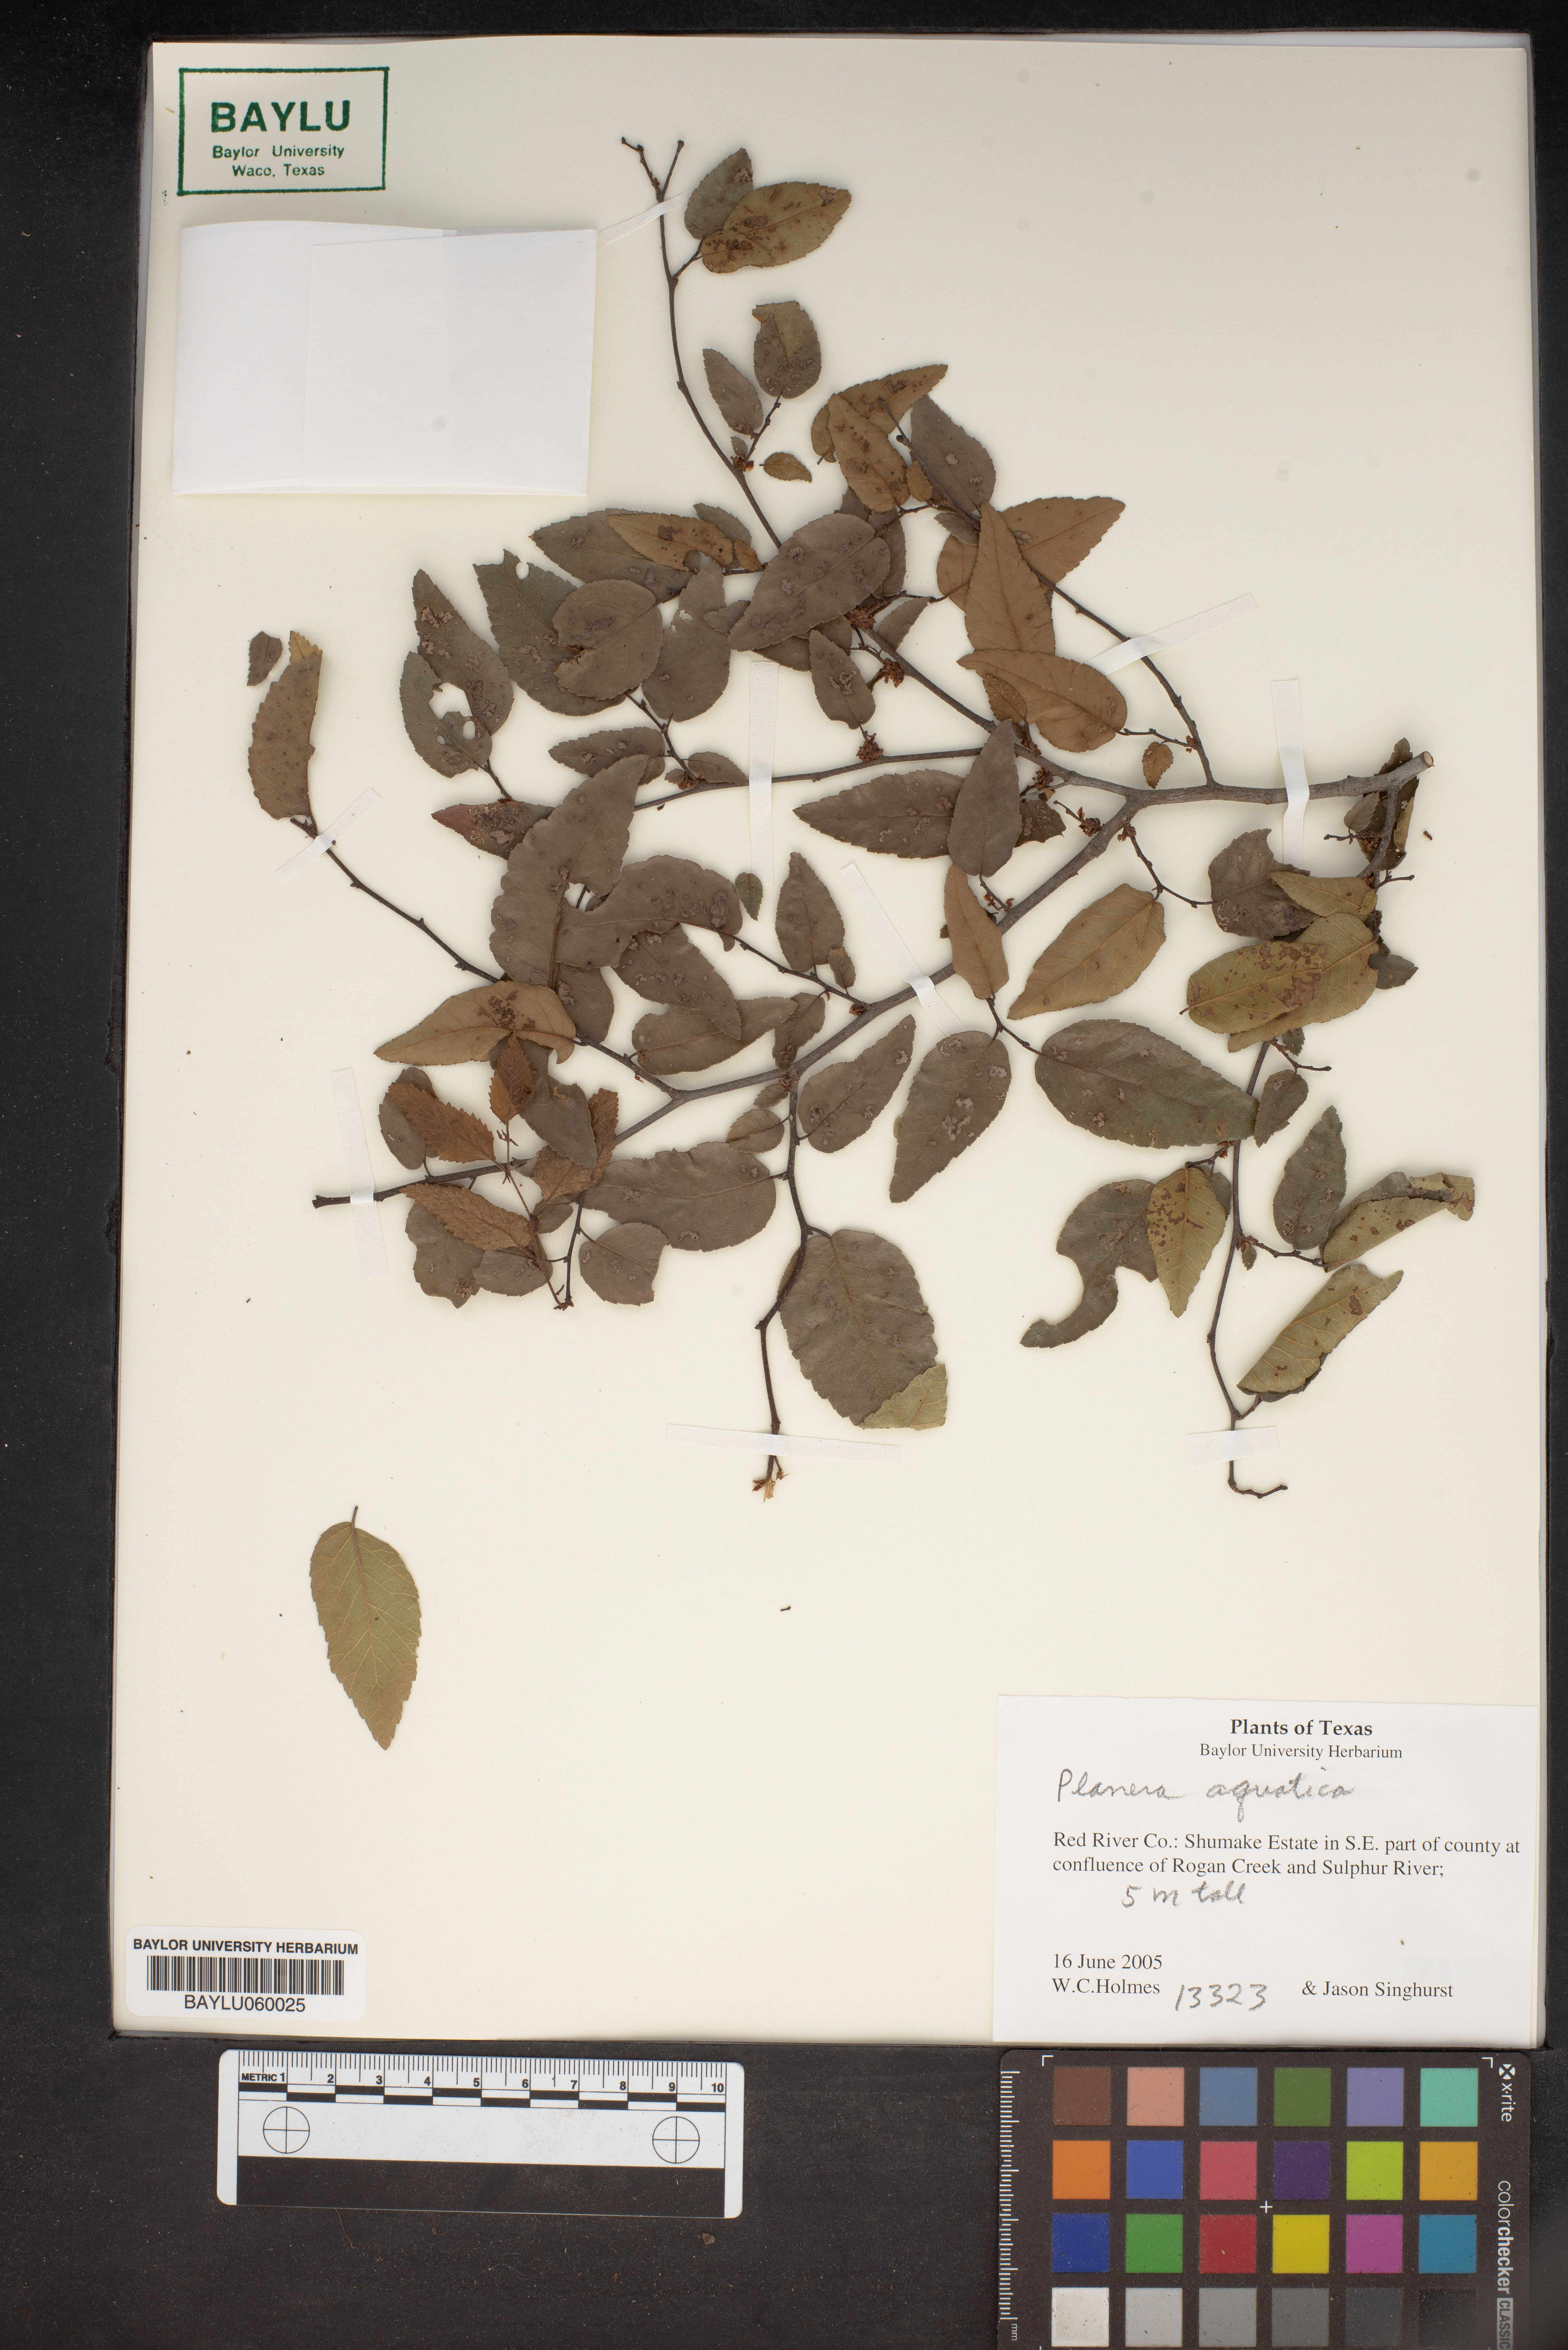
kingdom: Plantae
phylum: Tracheophyta
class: Magnoliopsida
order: Rosales
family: Ulmaceae
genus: Planera
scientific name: Planera aquatica
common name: Water-elm
